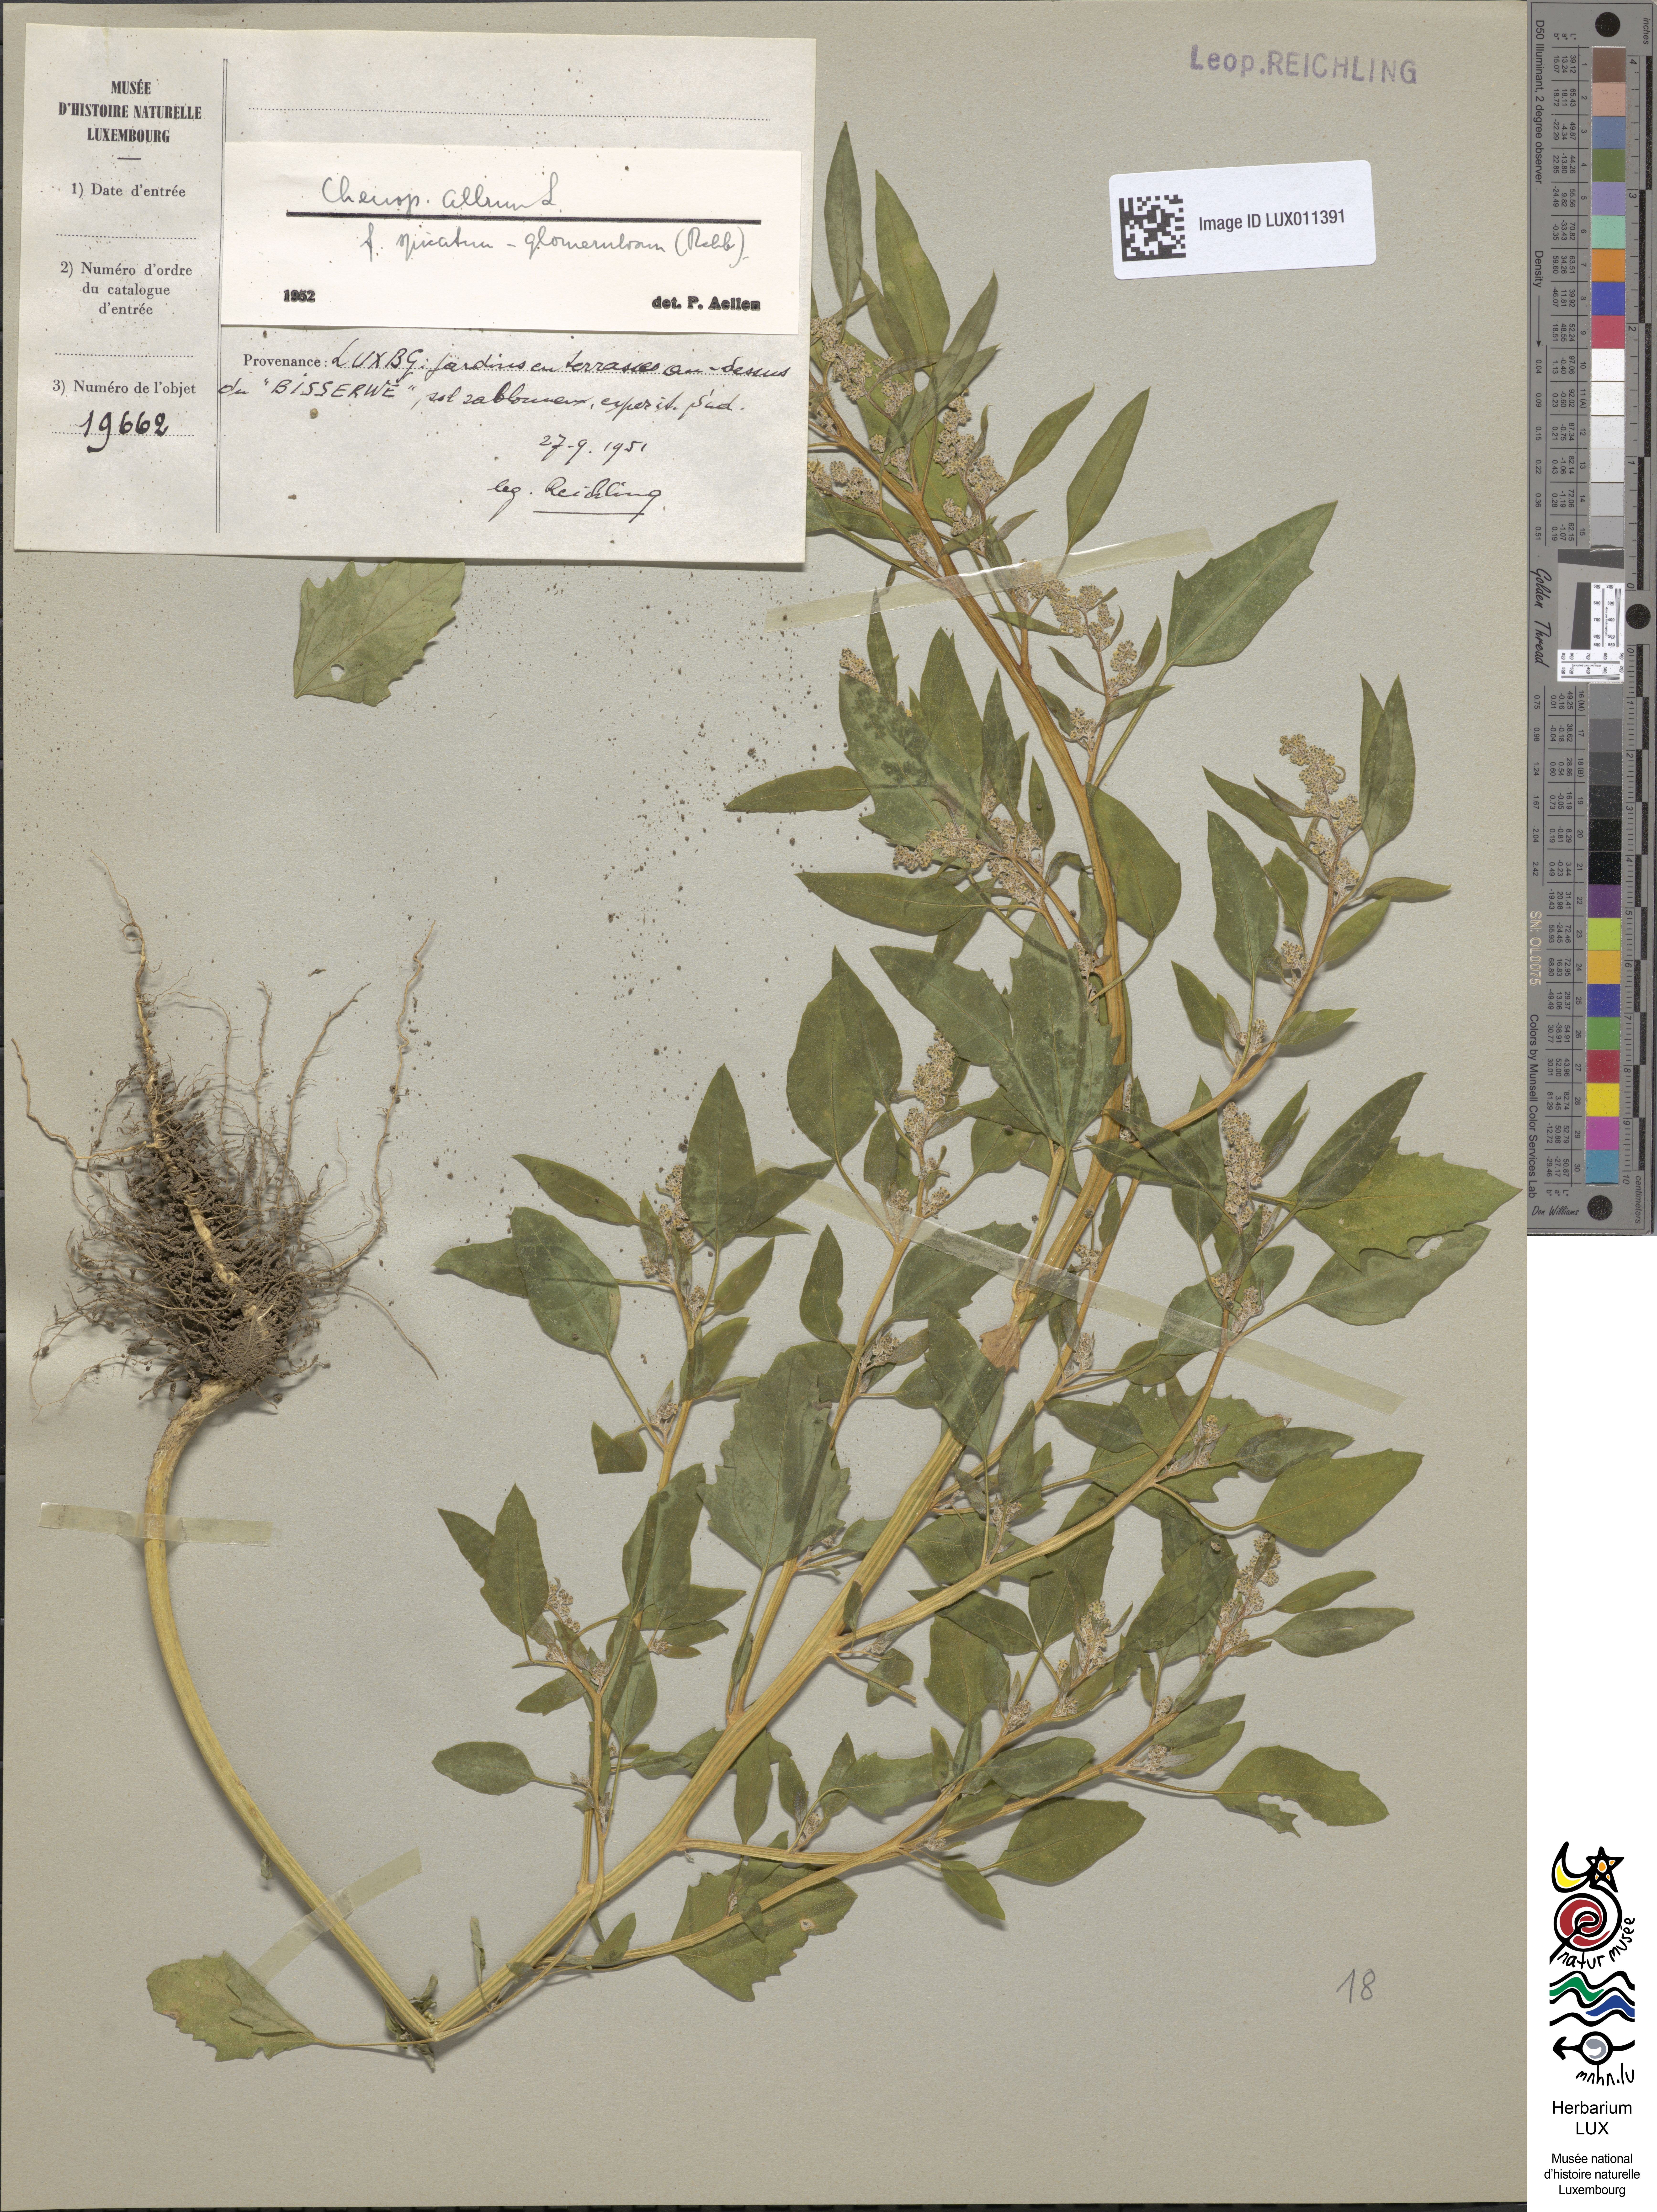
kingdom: Plantae
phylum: Tracheophyta
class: Magnoliopsida
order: Caryophyllales
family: Amaranthaceae
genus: Chenopodium
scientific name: Chenopodium album
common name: Fat-hen
